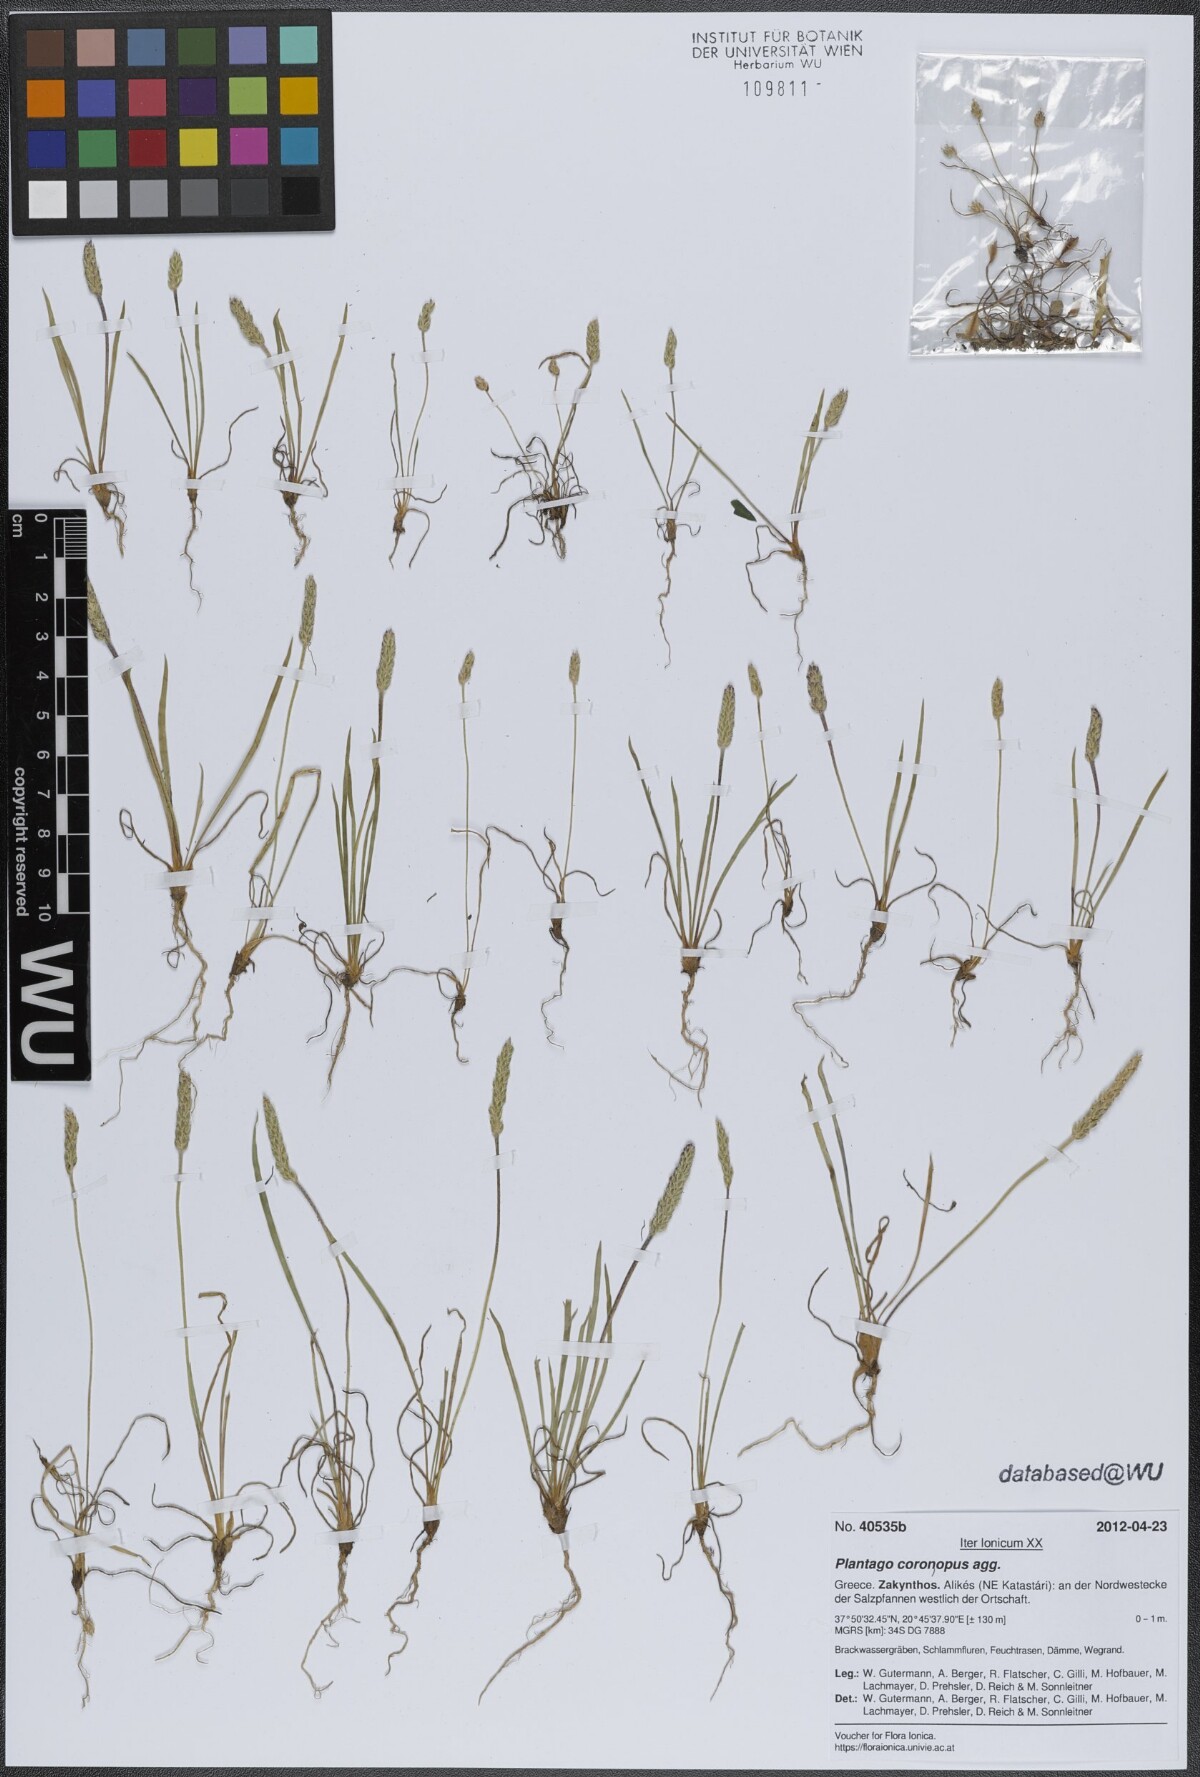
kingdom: Plantae
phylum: Tracheophyta
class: Magnoliopsida
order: Lamiales
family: Plantaginaceae
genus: Plantago
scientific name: Plantago coronopus
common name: Buck's-horn plantain
